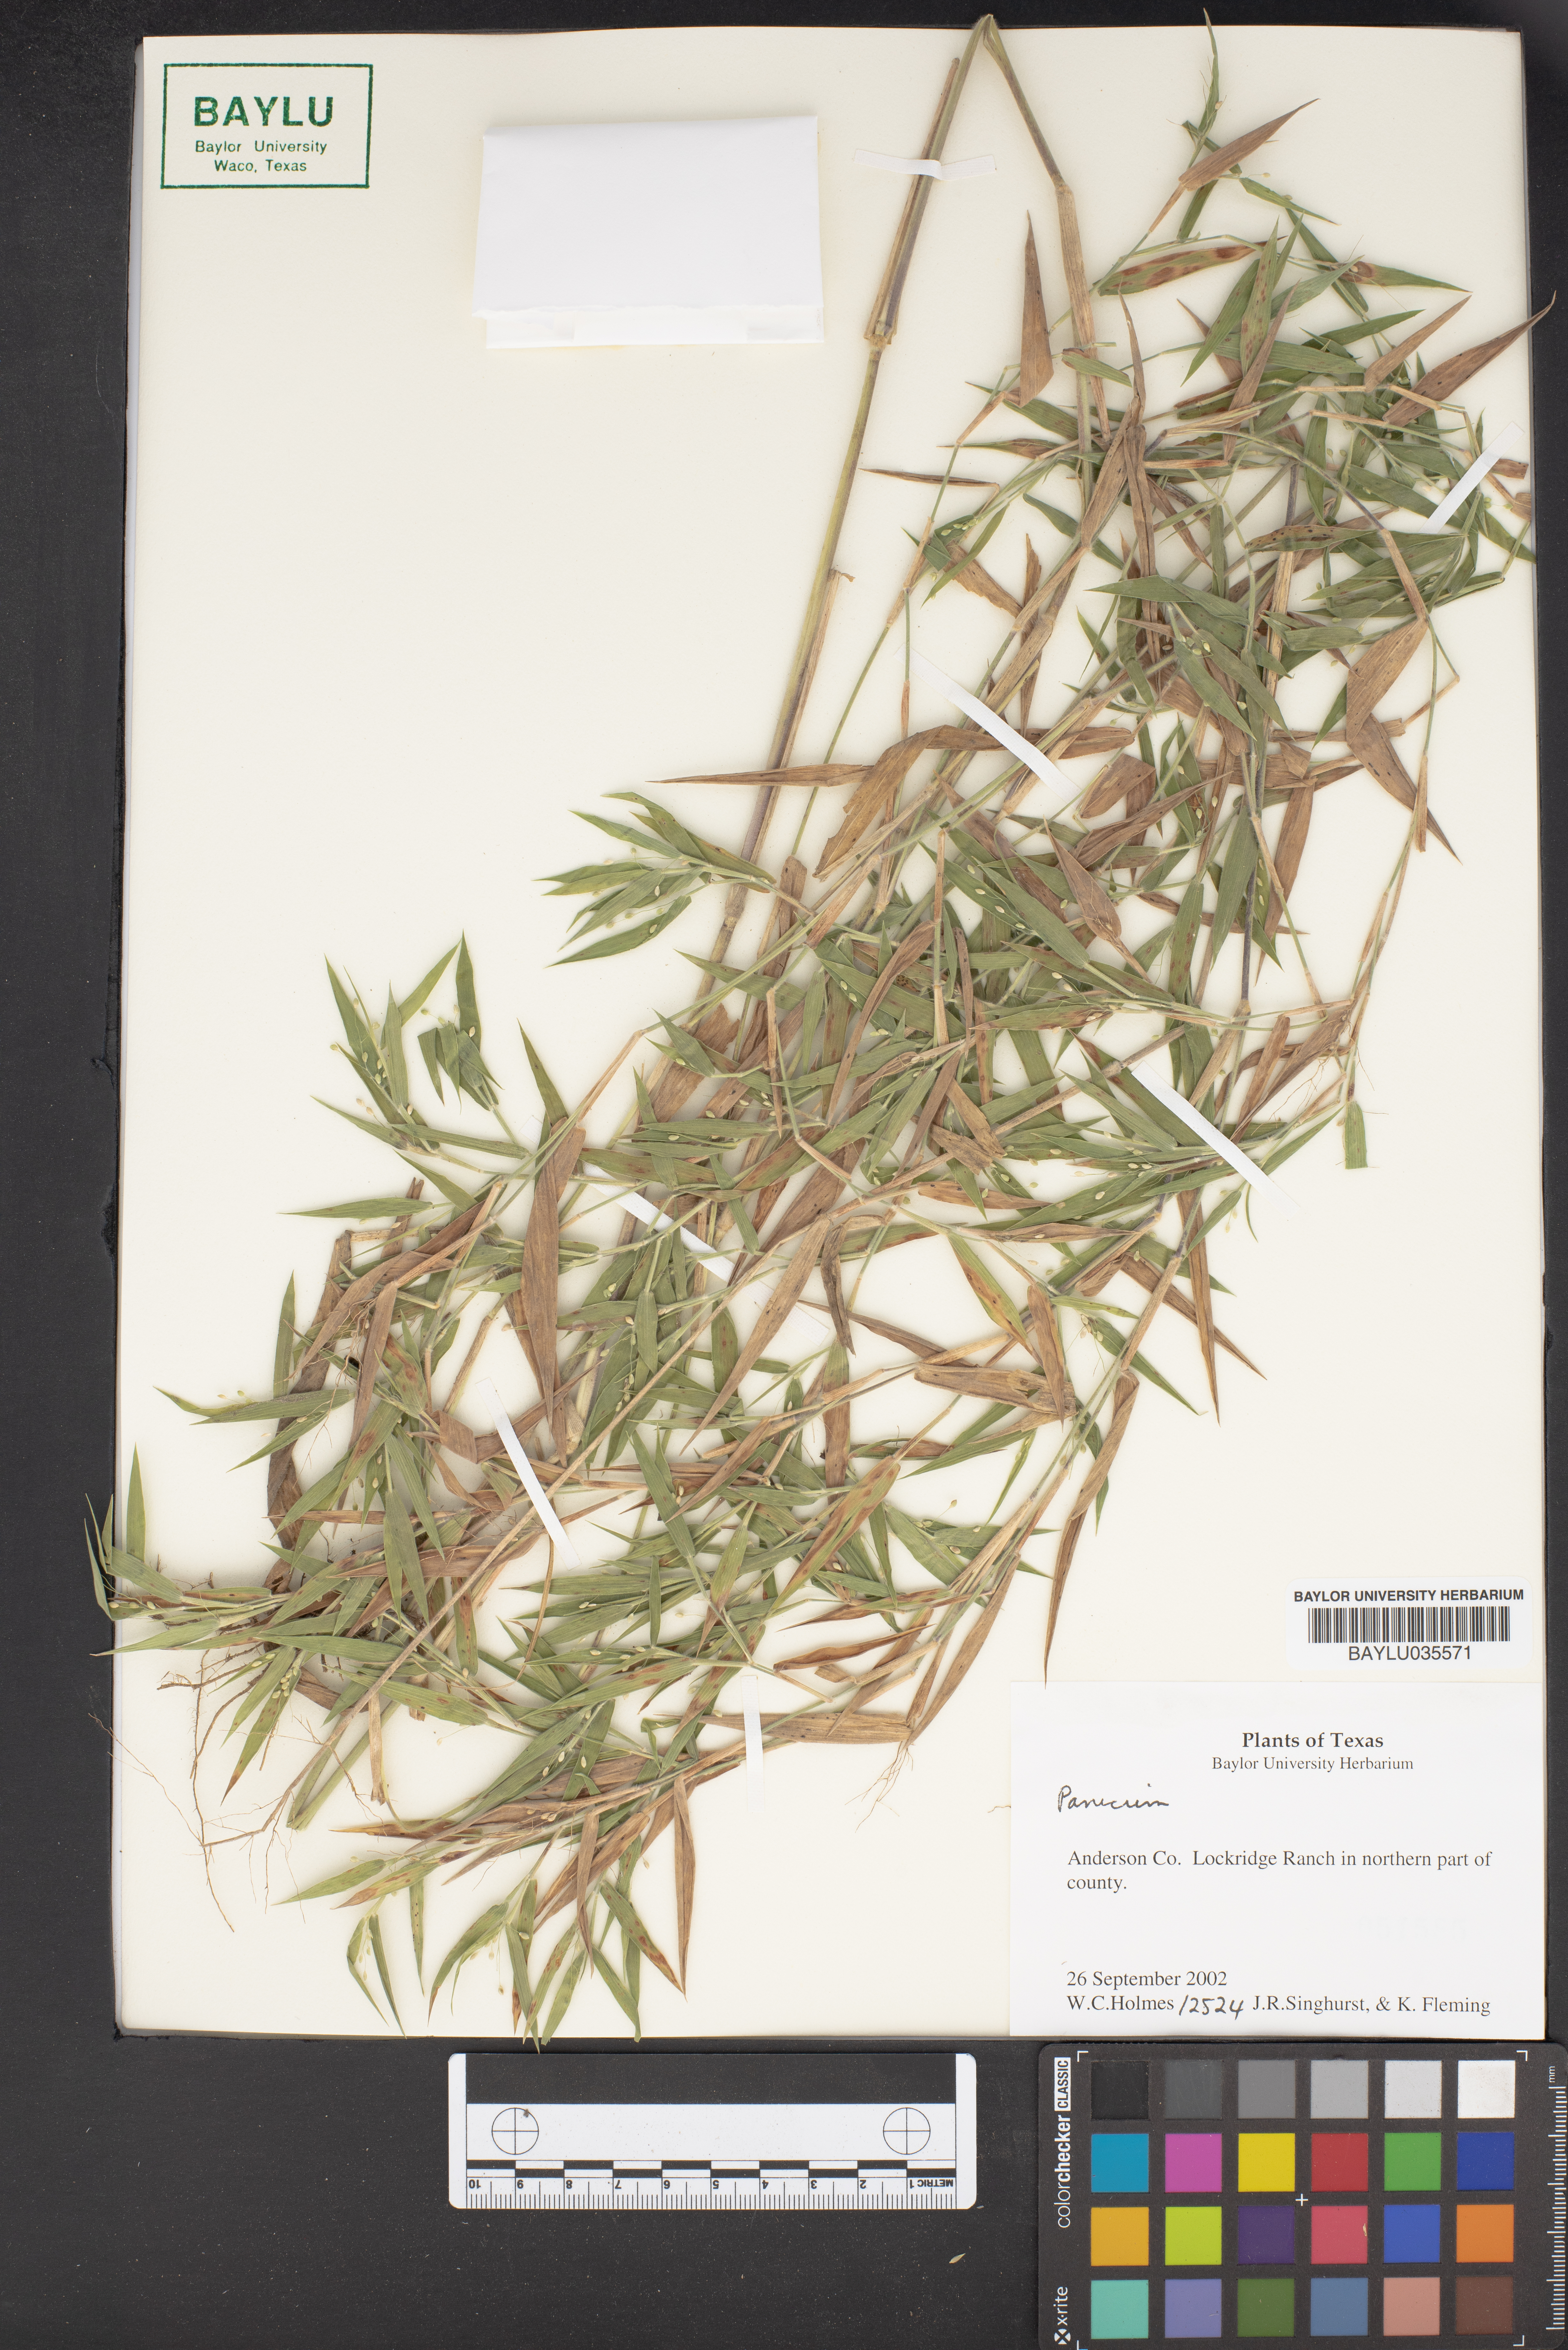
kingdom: Plantae
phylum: Tracheophyta
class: Liliopsida
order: Poales
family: Poaceae
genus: Panicum
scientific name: Panicum
